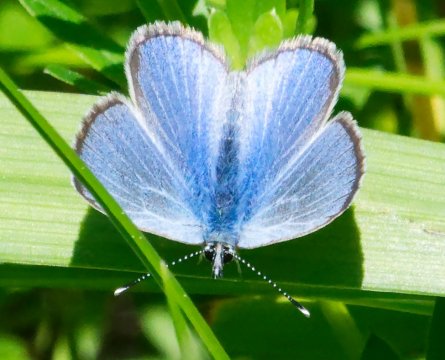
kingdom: Animalia
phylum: Arthropoda
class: Insecta
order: Lepidoptera
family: Lycaenidae
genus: Glaucopsyche
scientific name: Glaucopsyche lygdamus
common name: Silvery Blue
